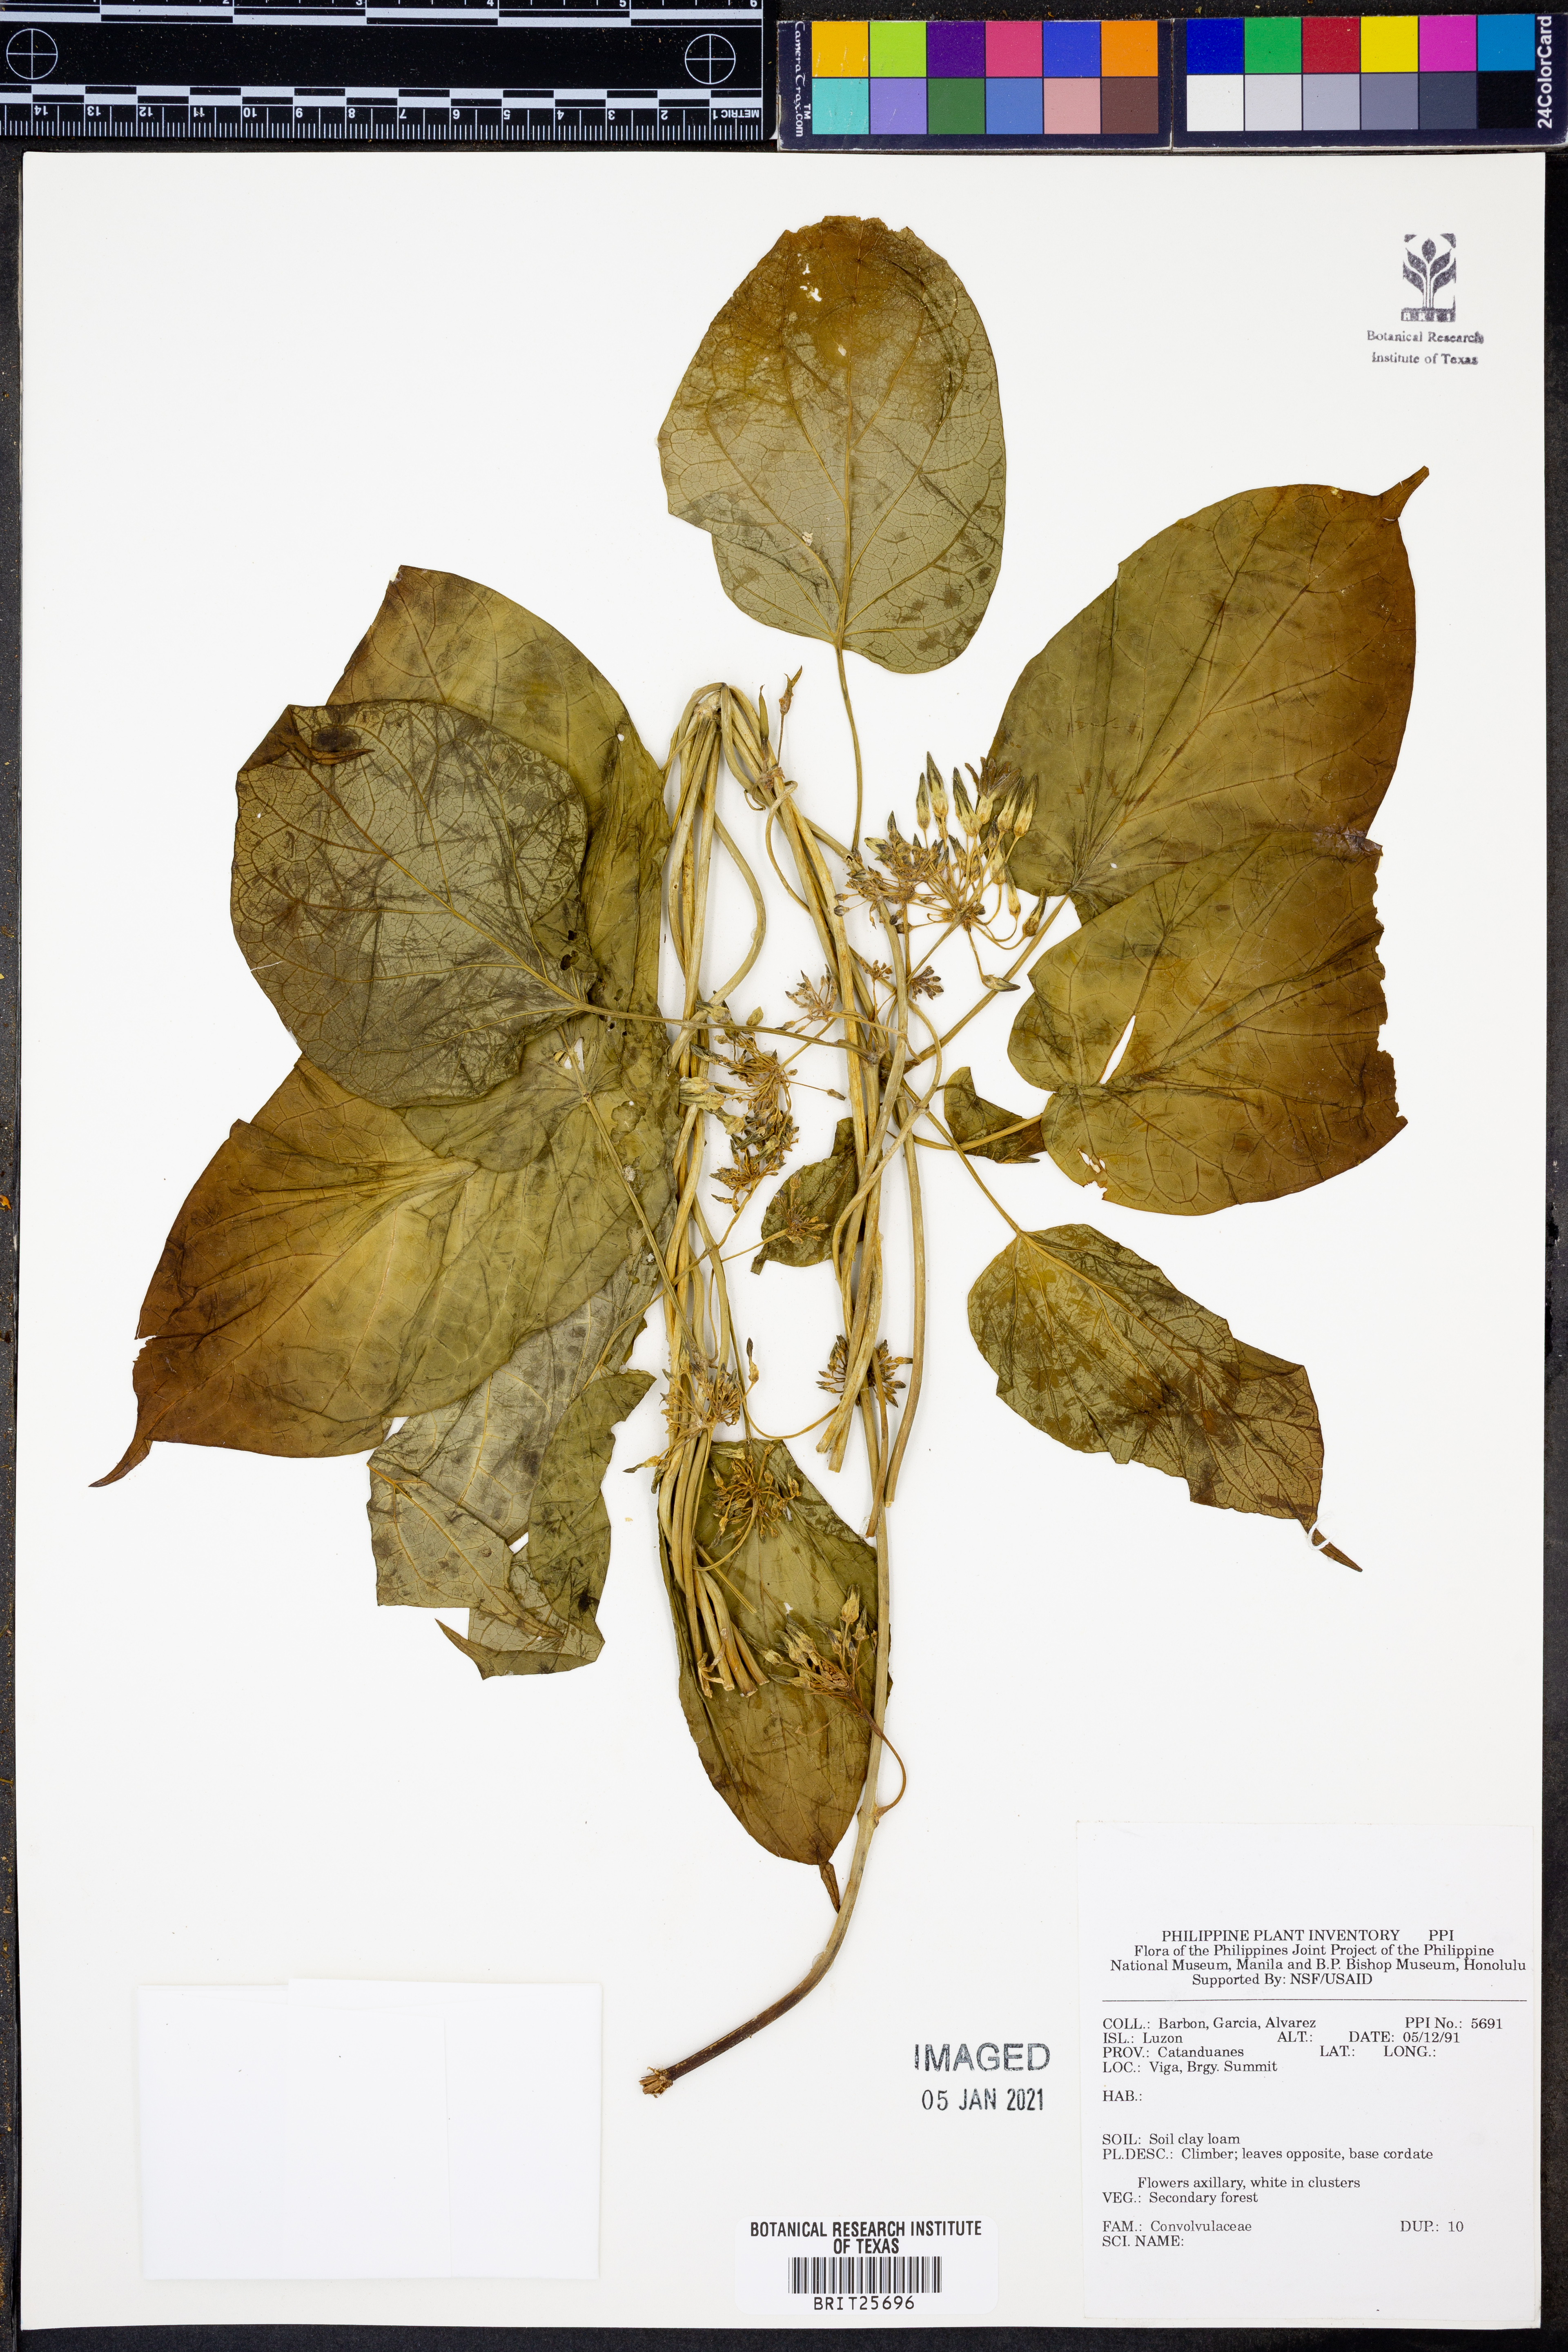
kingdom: Plantae
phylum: Tracheophyta
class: Magnoliopsida
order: Solanales
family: Convolvulaceae
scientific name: Convolvulaceae
